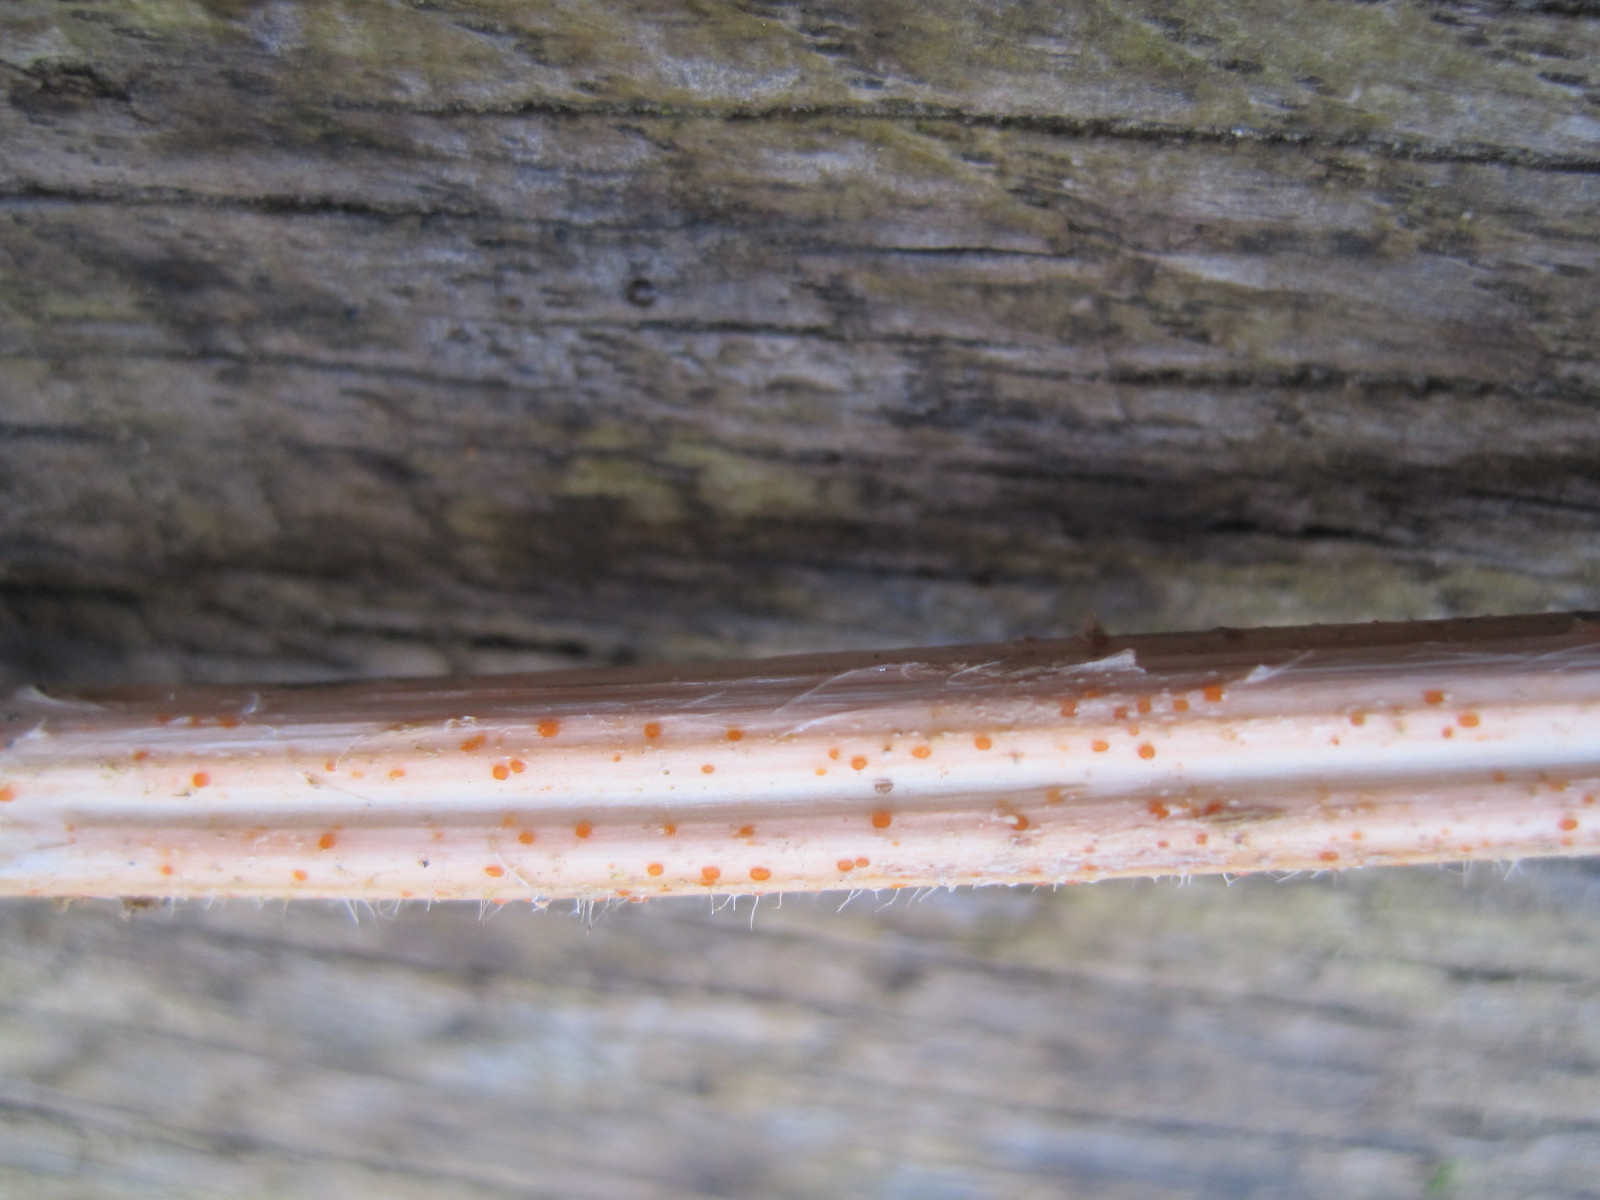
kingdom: Fungi
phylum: Ascomycota
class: Leotiomycetes
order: Helotiales
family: Calloriaceae
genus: Calloria
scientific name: Calloria urticae
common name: nælde-orangeskive
